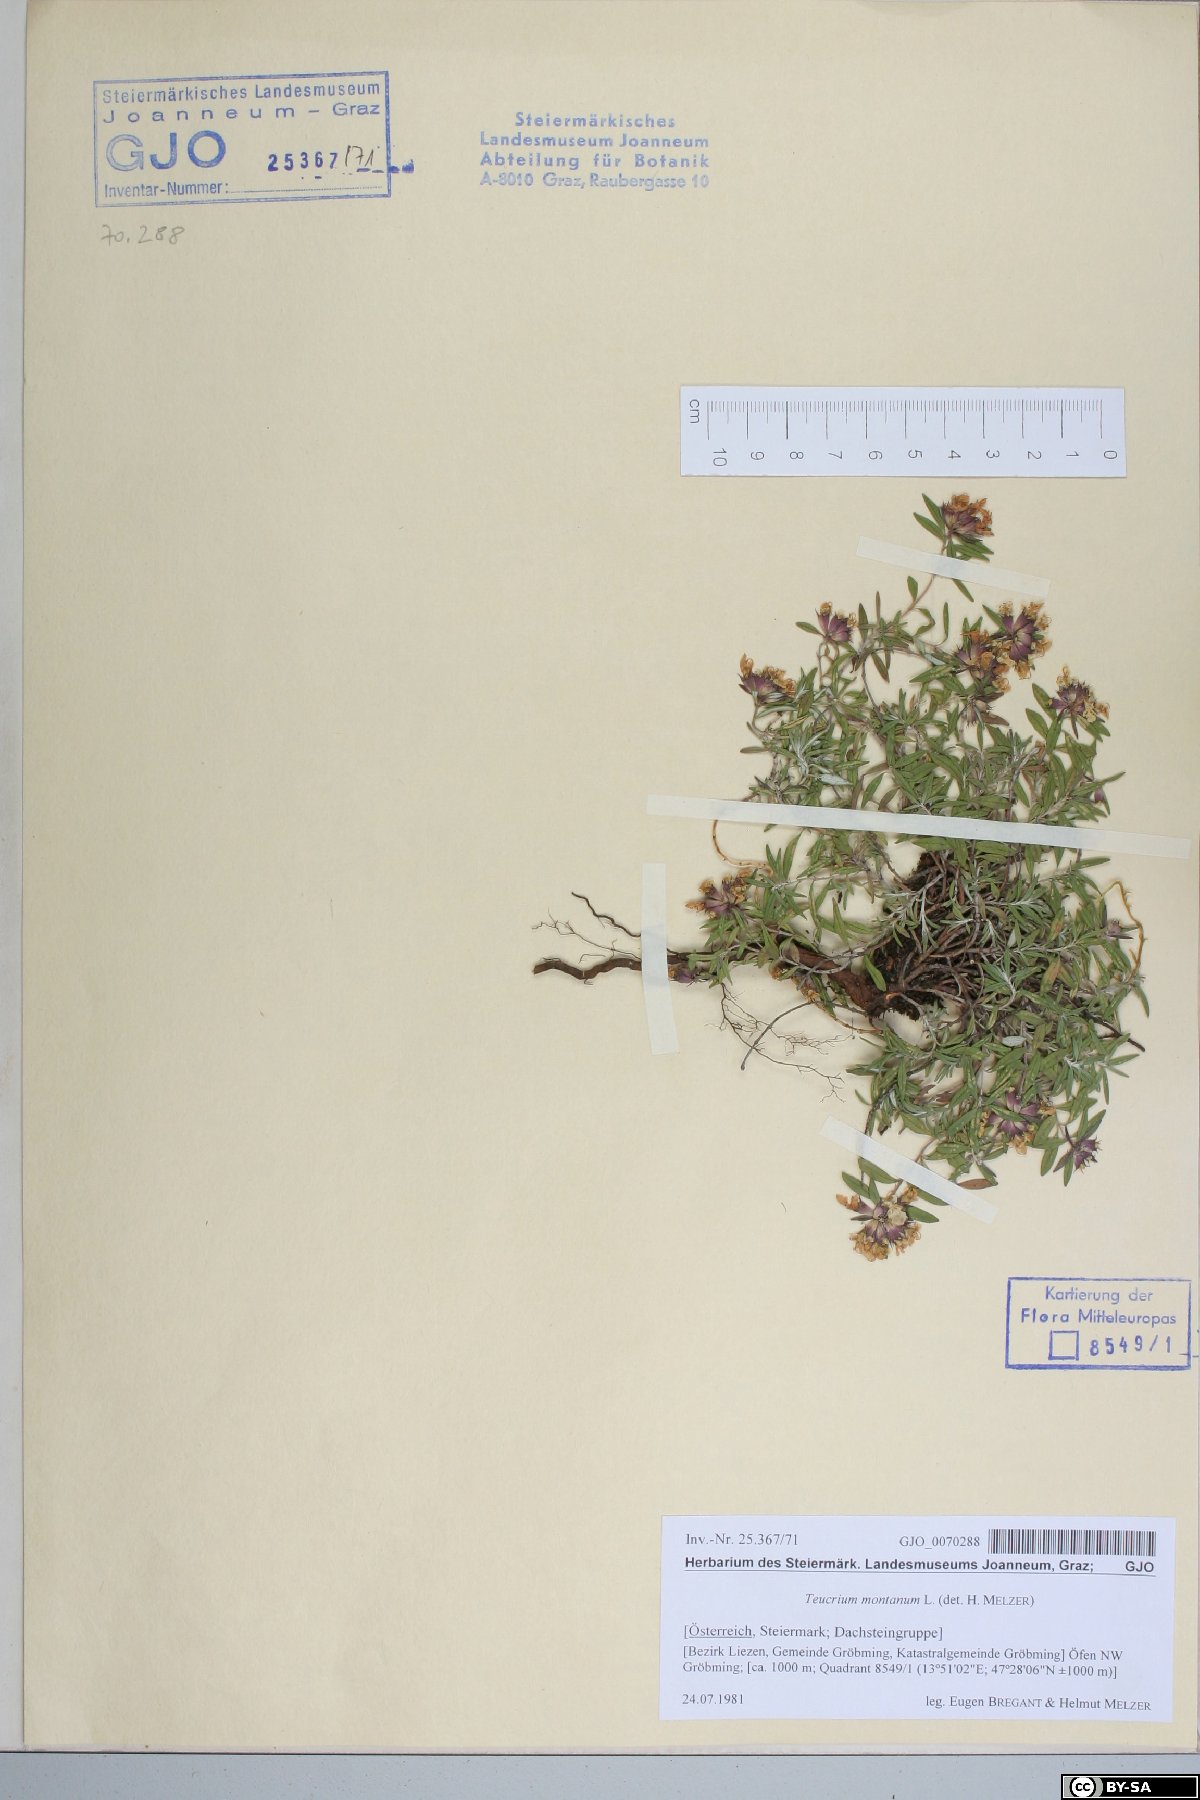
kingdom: Plantae
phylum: Tracheophyta
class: Magnoliopsida
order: Lamiales
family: Lamiaceae
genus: Teucrium
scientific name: Teucrium montanum
